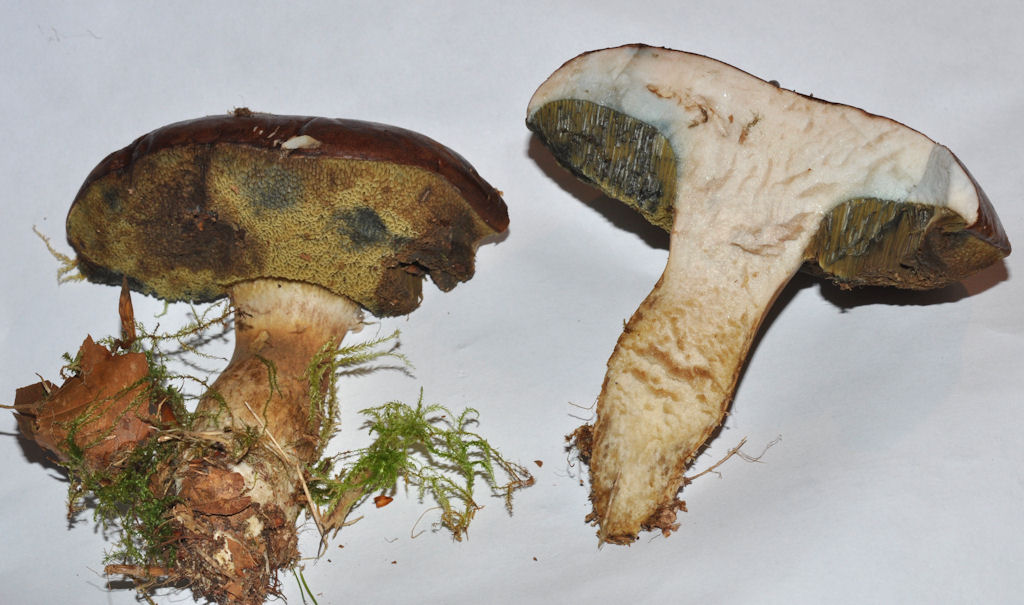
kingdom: Fungi
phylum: Basidiomycota
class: Agaricomycetes
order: Boletales
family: Boletaceae
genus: Imleria
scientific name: Imleria badia
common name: brunstokket rørhat
